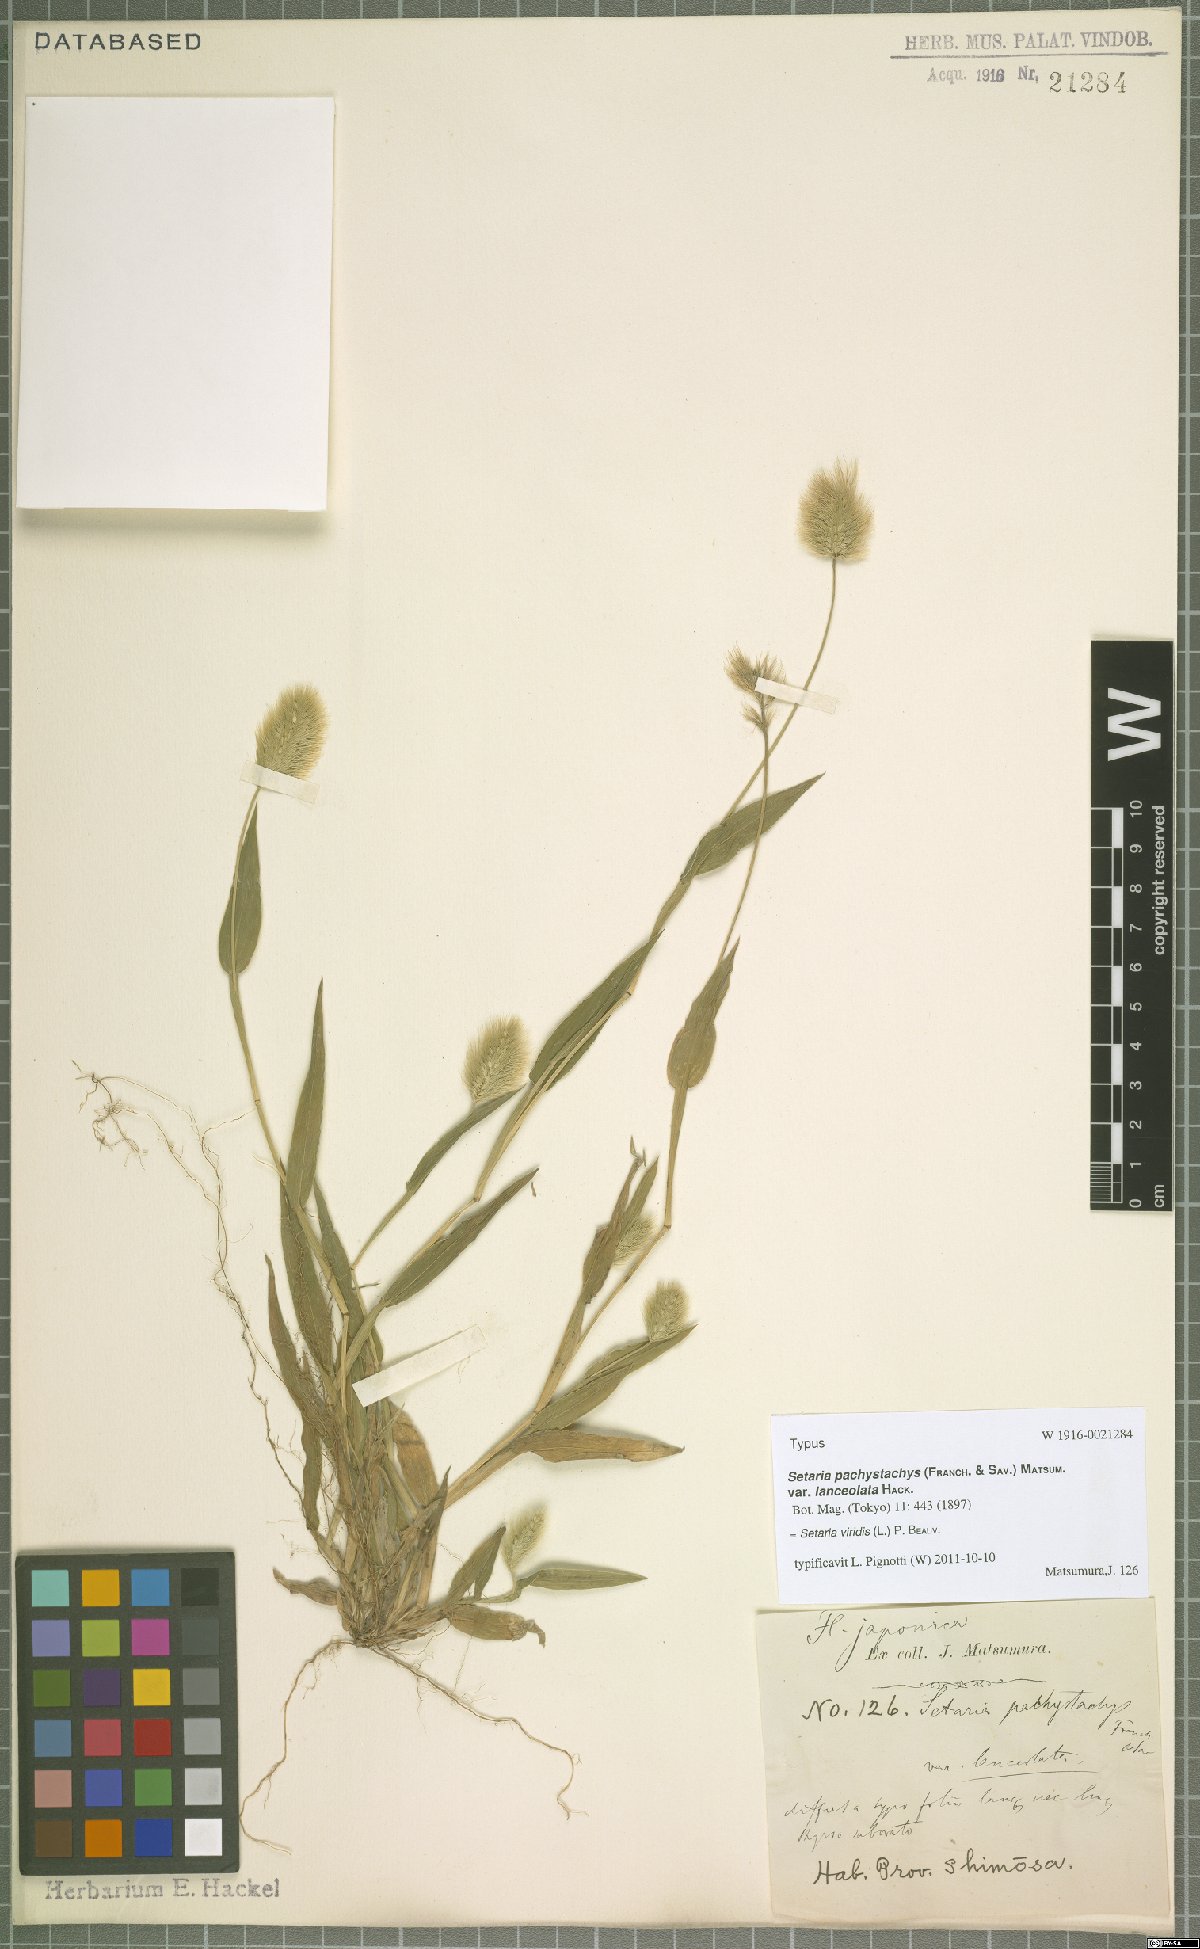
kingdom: Plantae
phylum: Tracheophyta
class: Liliopsida
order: Poales
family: Poaceae
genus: Setaria
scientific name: Setaria viridis
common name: Green bristlegrass
